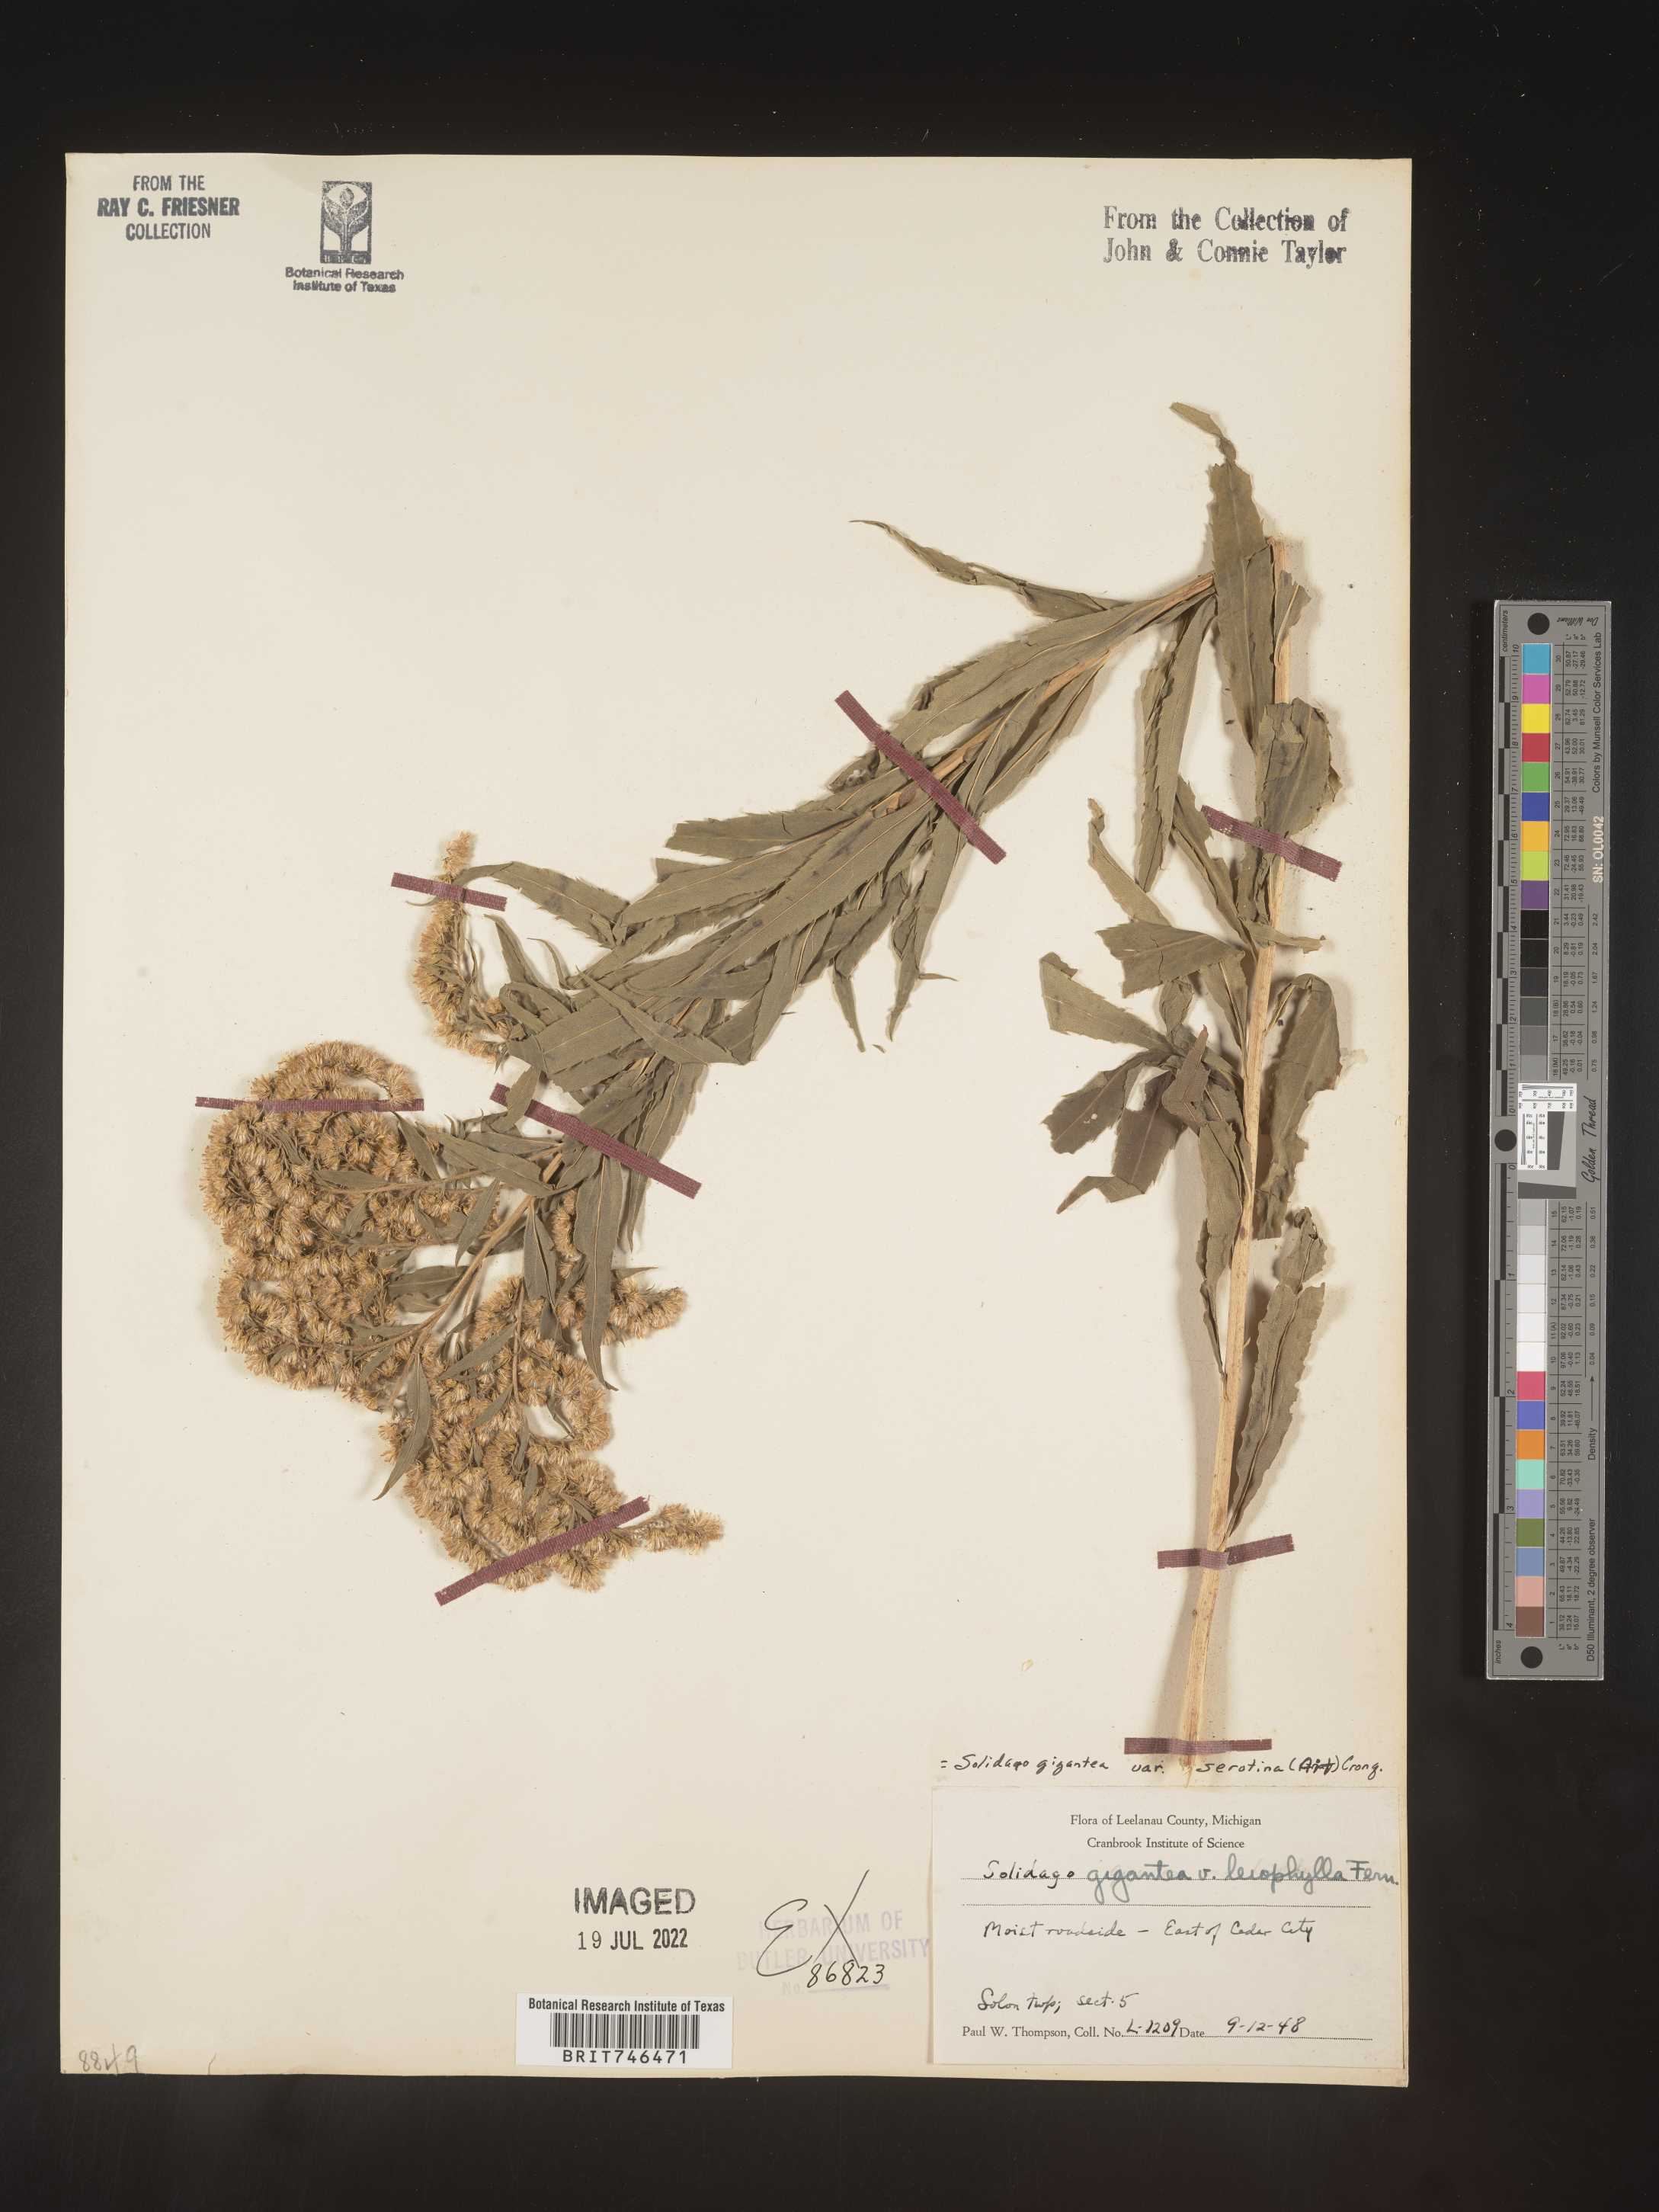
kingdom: Plantae
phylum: Tracheophyta
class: Magnoliopsida
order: Asterales
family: Asteraceae
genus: Solidago
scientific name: Solidago gigantea
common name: Giant goldenrod
